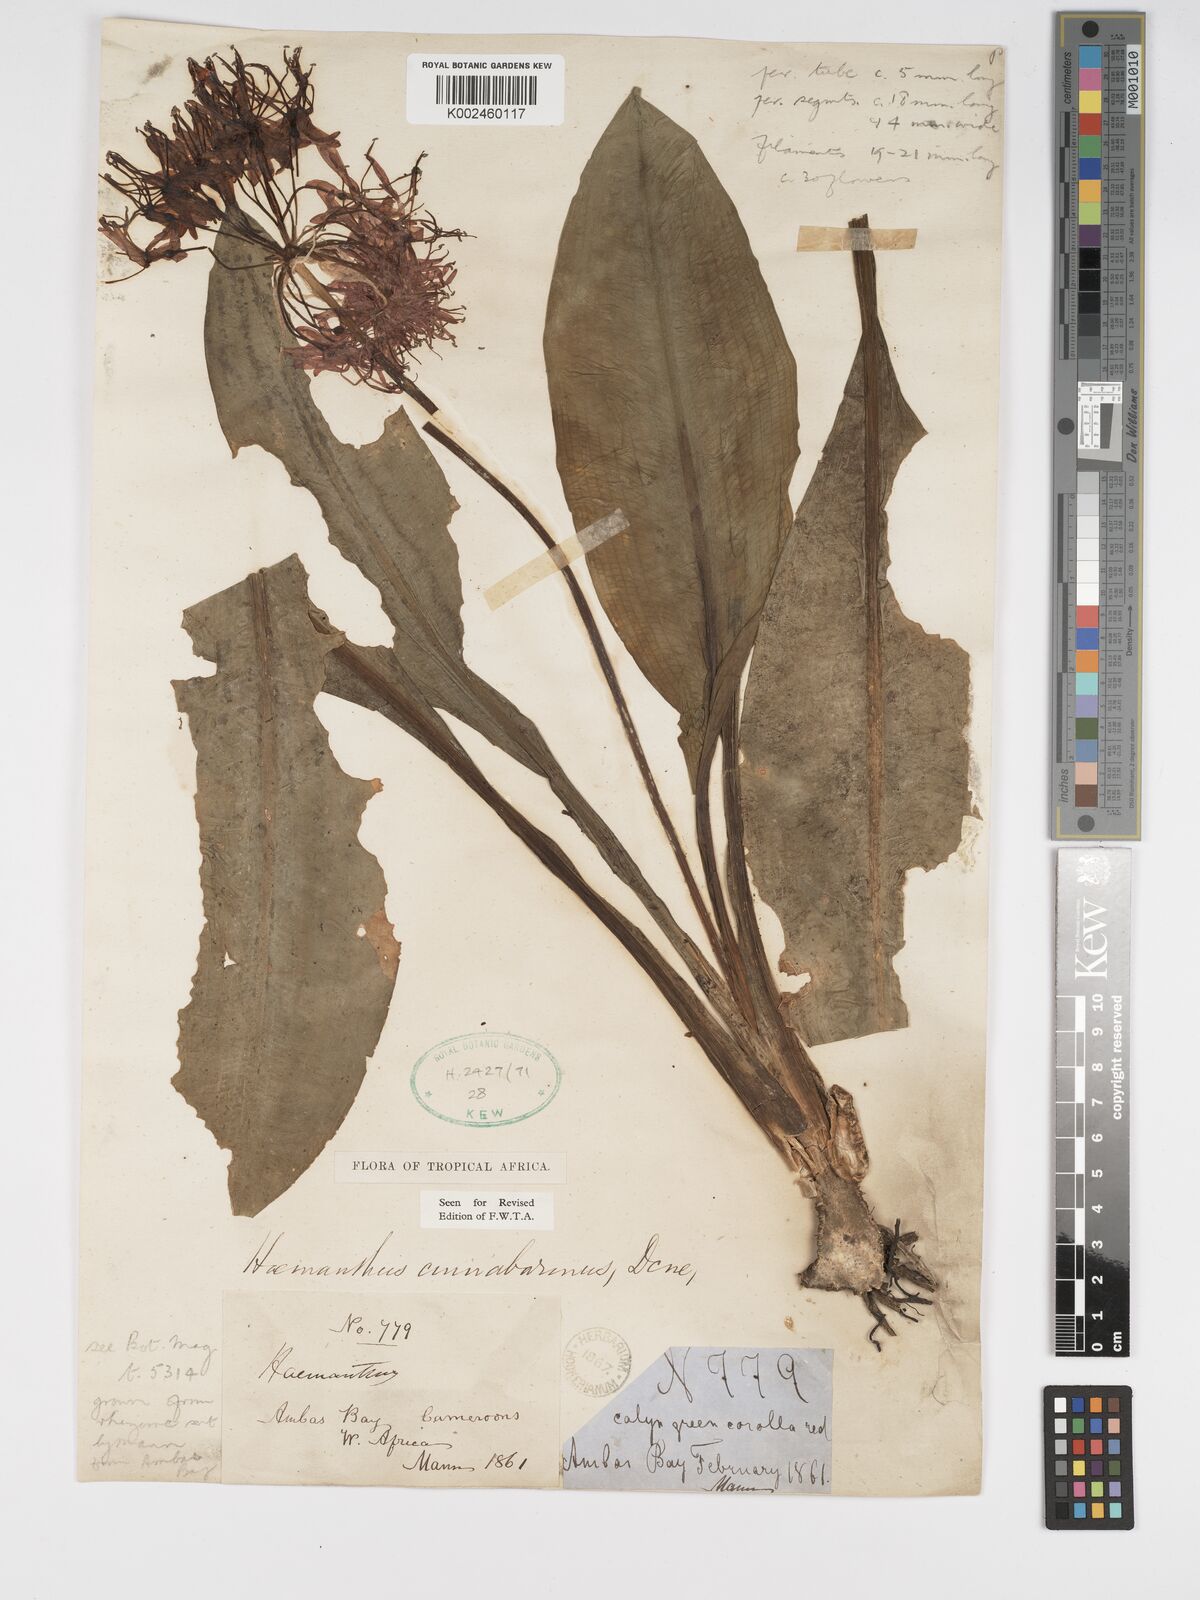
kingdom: Plantae
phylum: Tracheophyta
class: Liliopsida
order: Asparagales
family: Amaryllidaceae
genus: Scadoxus
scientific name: Scadoxus cinnabarinus
